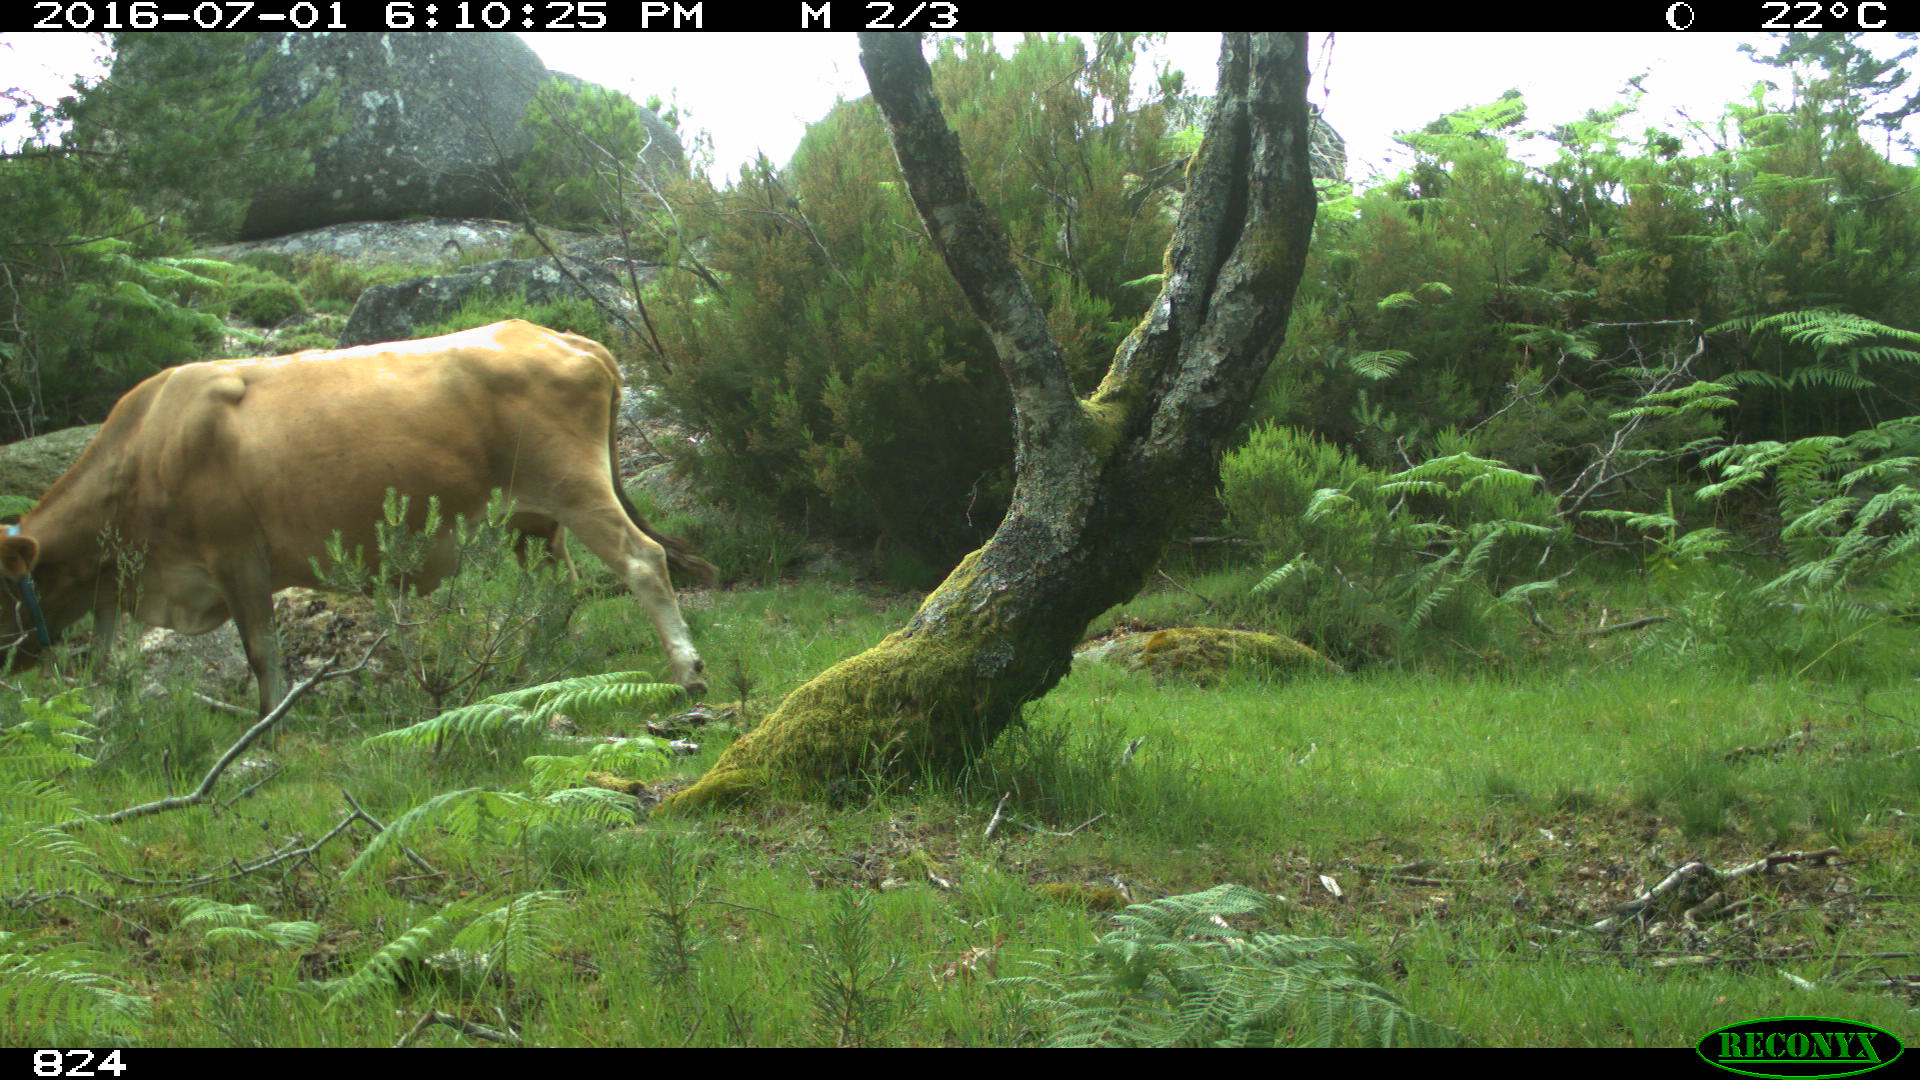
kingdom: Animalia
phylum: Chordata
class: Mammalia
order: Artiodactyla
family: Bovidae
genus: Bos
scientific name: Bos taurus
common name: Domesticated cattle
